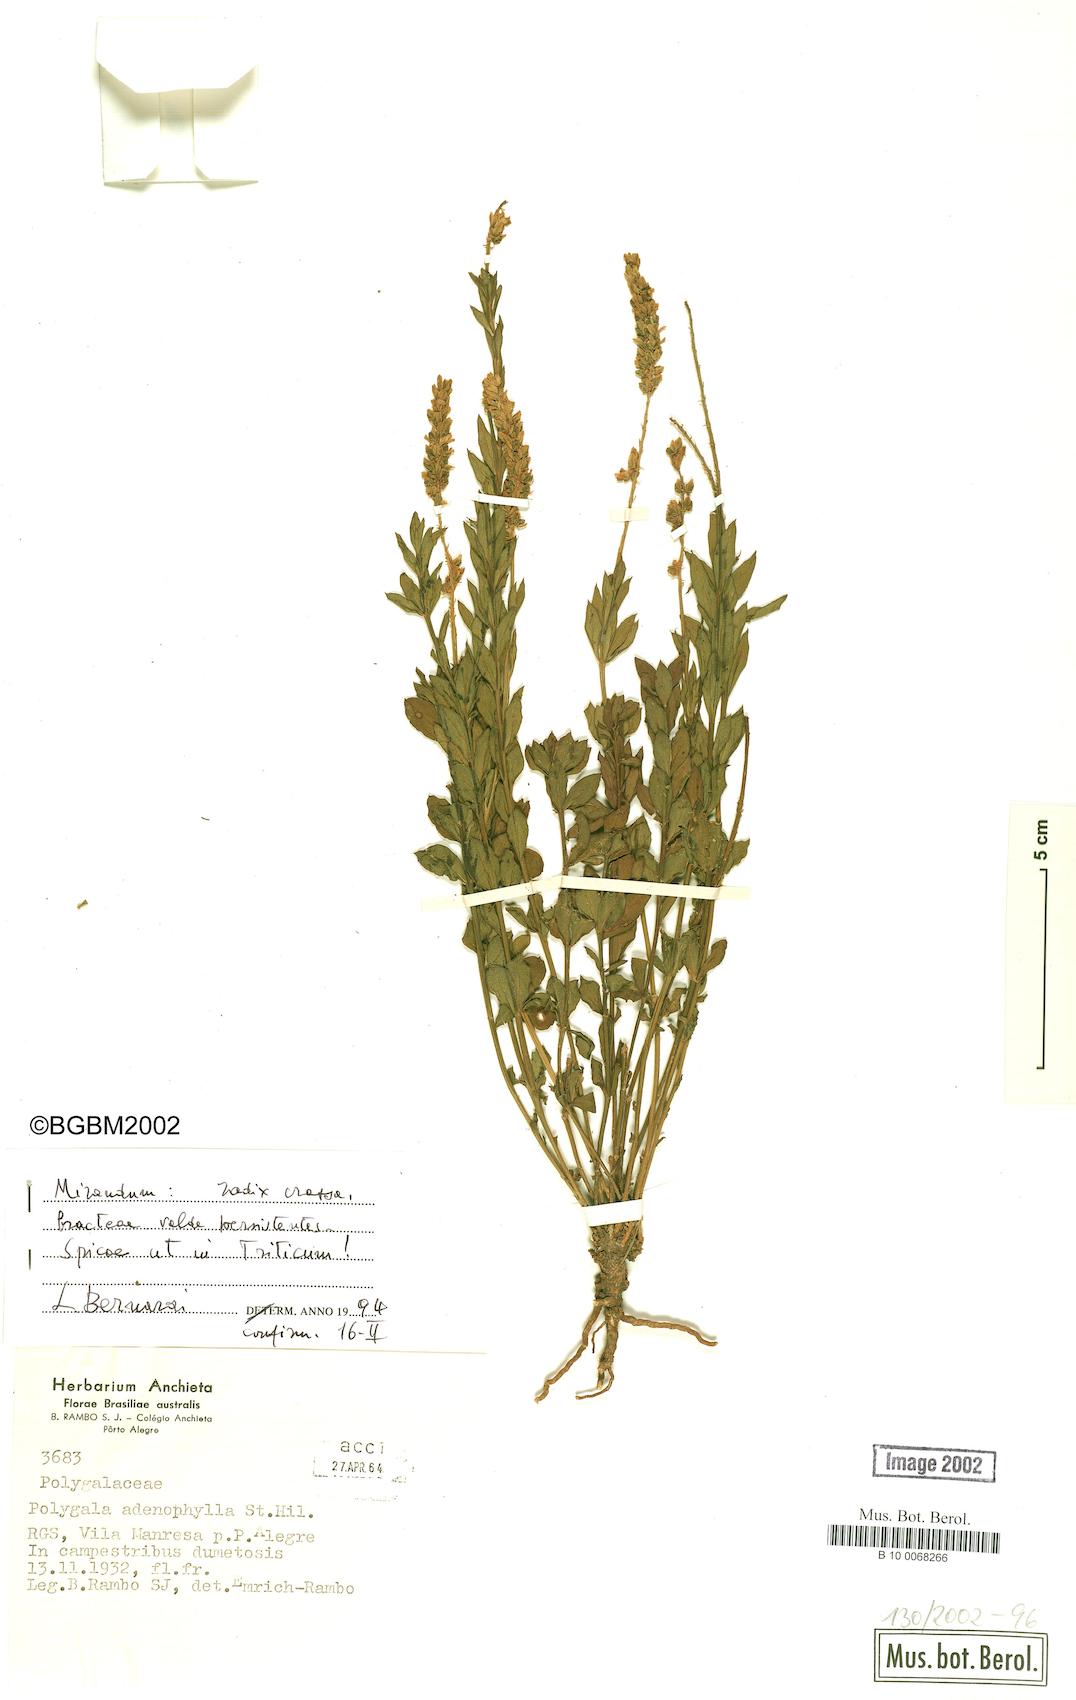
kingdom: Plantae
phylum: Tracheophyta
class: Magnoliopsida
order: Fabales
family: Polygalaceae
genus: Polygala
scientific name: Polygala adenophylla
